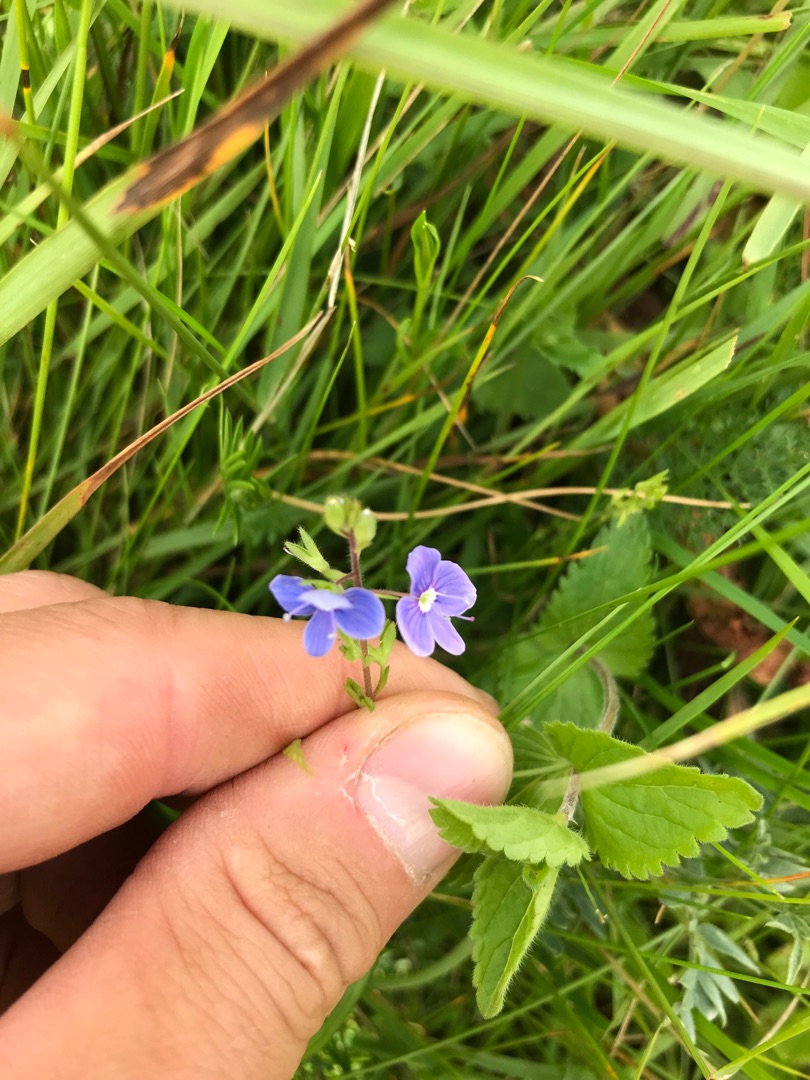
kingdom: Plantae
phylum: Tracheophyta
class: Magnoliopsida
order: Lamiales
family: Plantaginaceae
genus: Veronica
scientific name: Veronica chamaedrys
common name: Tveskægget ærenpris
